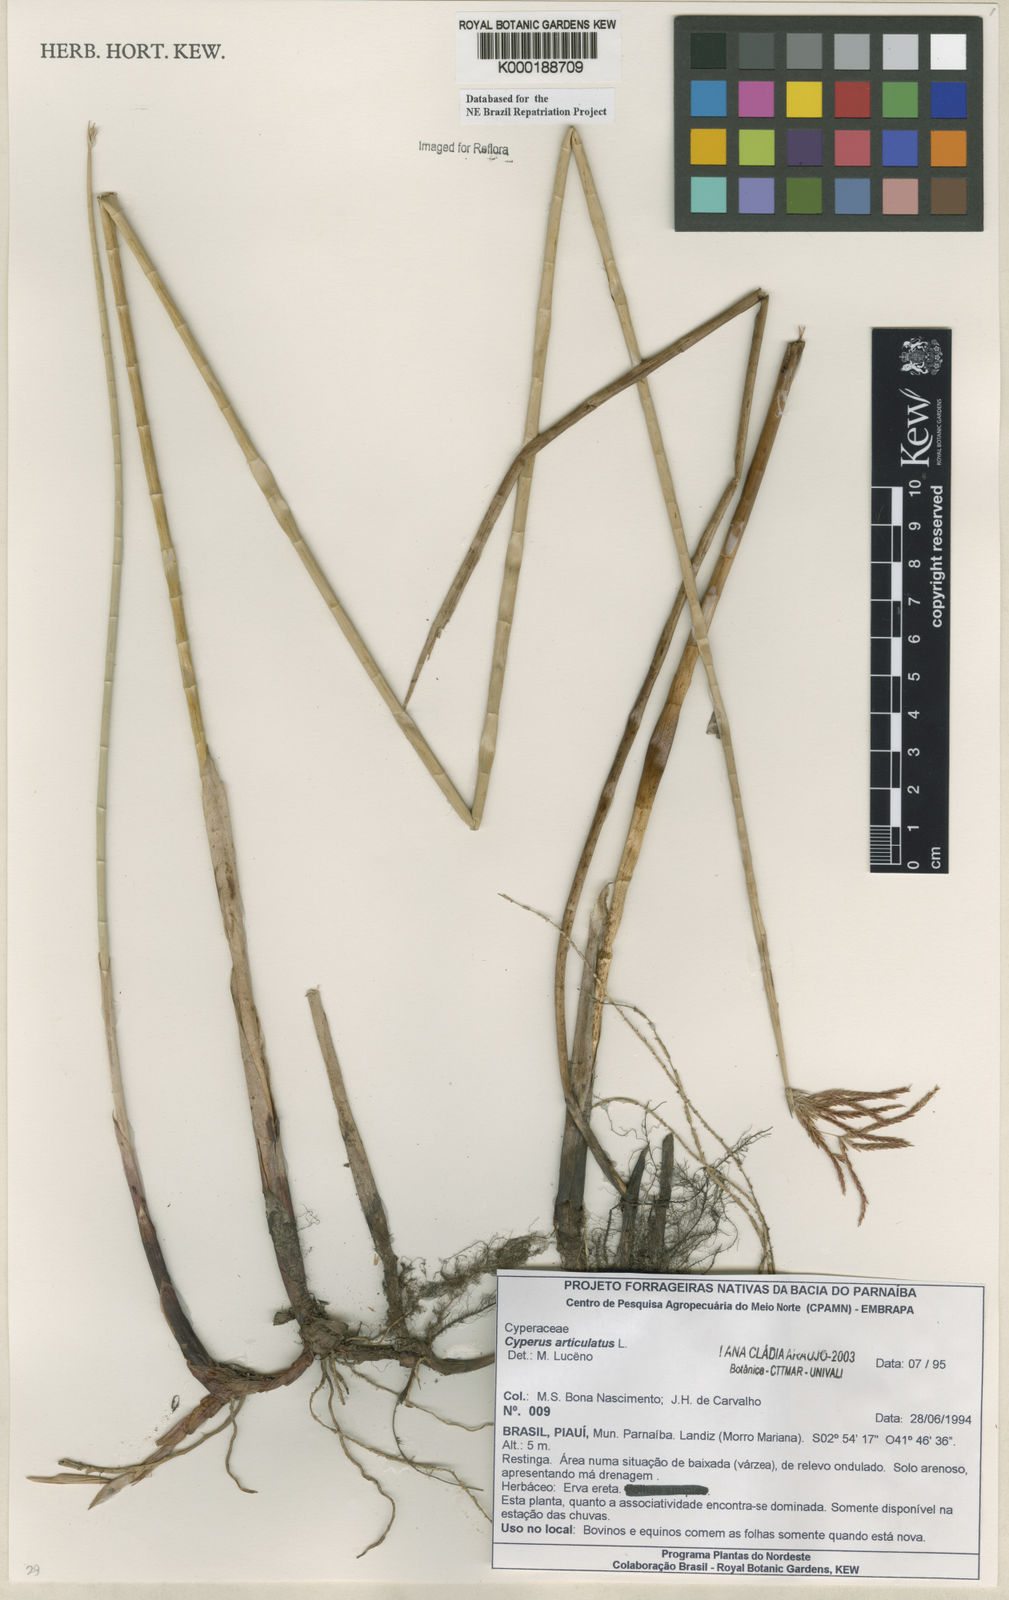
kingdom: Plantae
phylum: Tracheophyta
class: Liliopsida
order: Poales
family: Cyperaceae
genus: Cyperus
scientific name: Cyperus articulatus
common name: Jointed flatsedge
